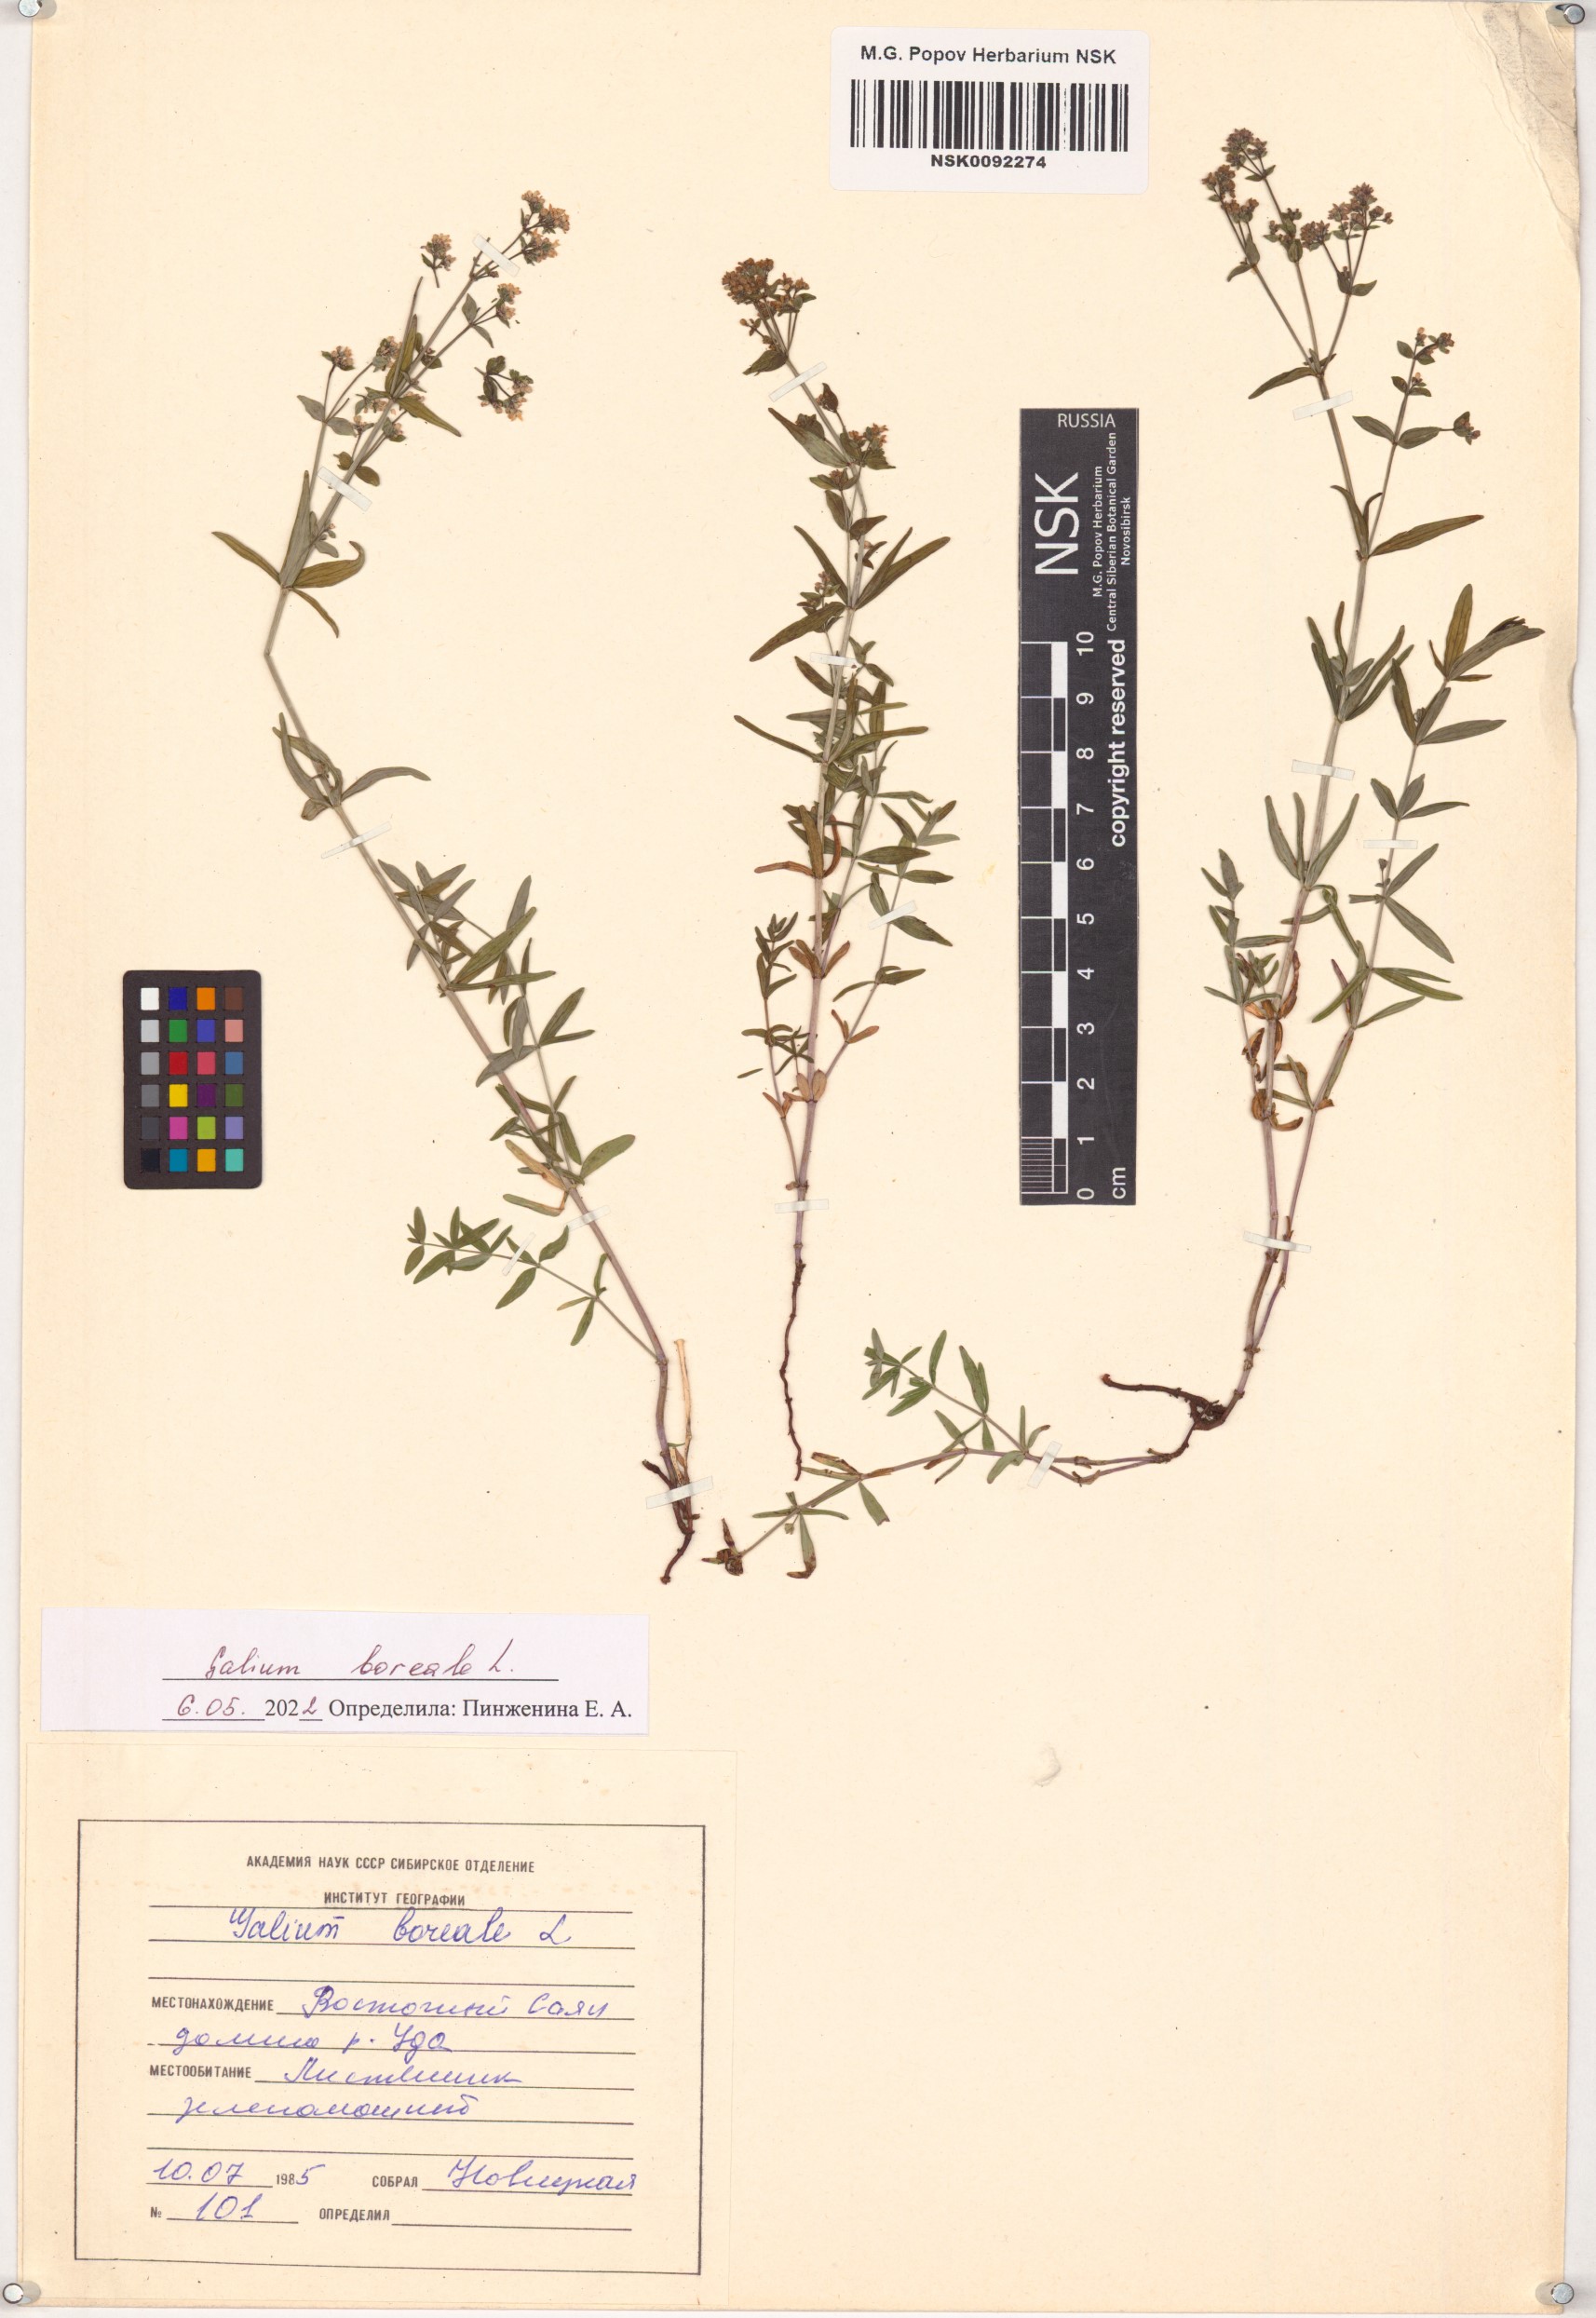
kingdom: Plantae
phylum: Tracheophyta
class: Magnoliopsida
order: Gentianales
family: Rubiaceae
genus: Galium
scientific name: Galium boreale
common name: Northern bedstraw
